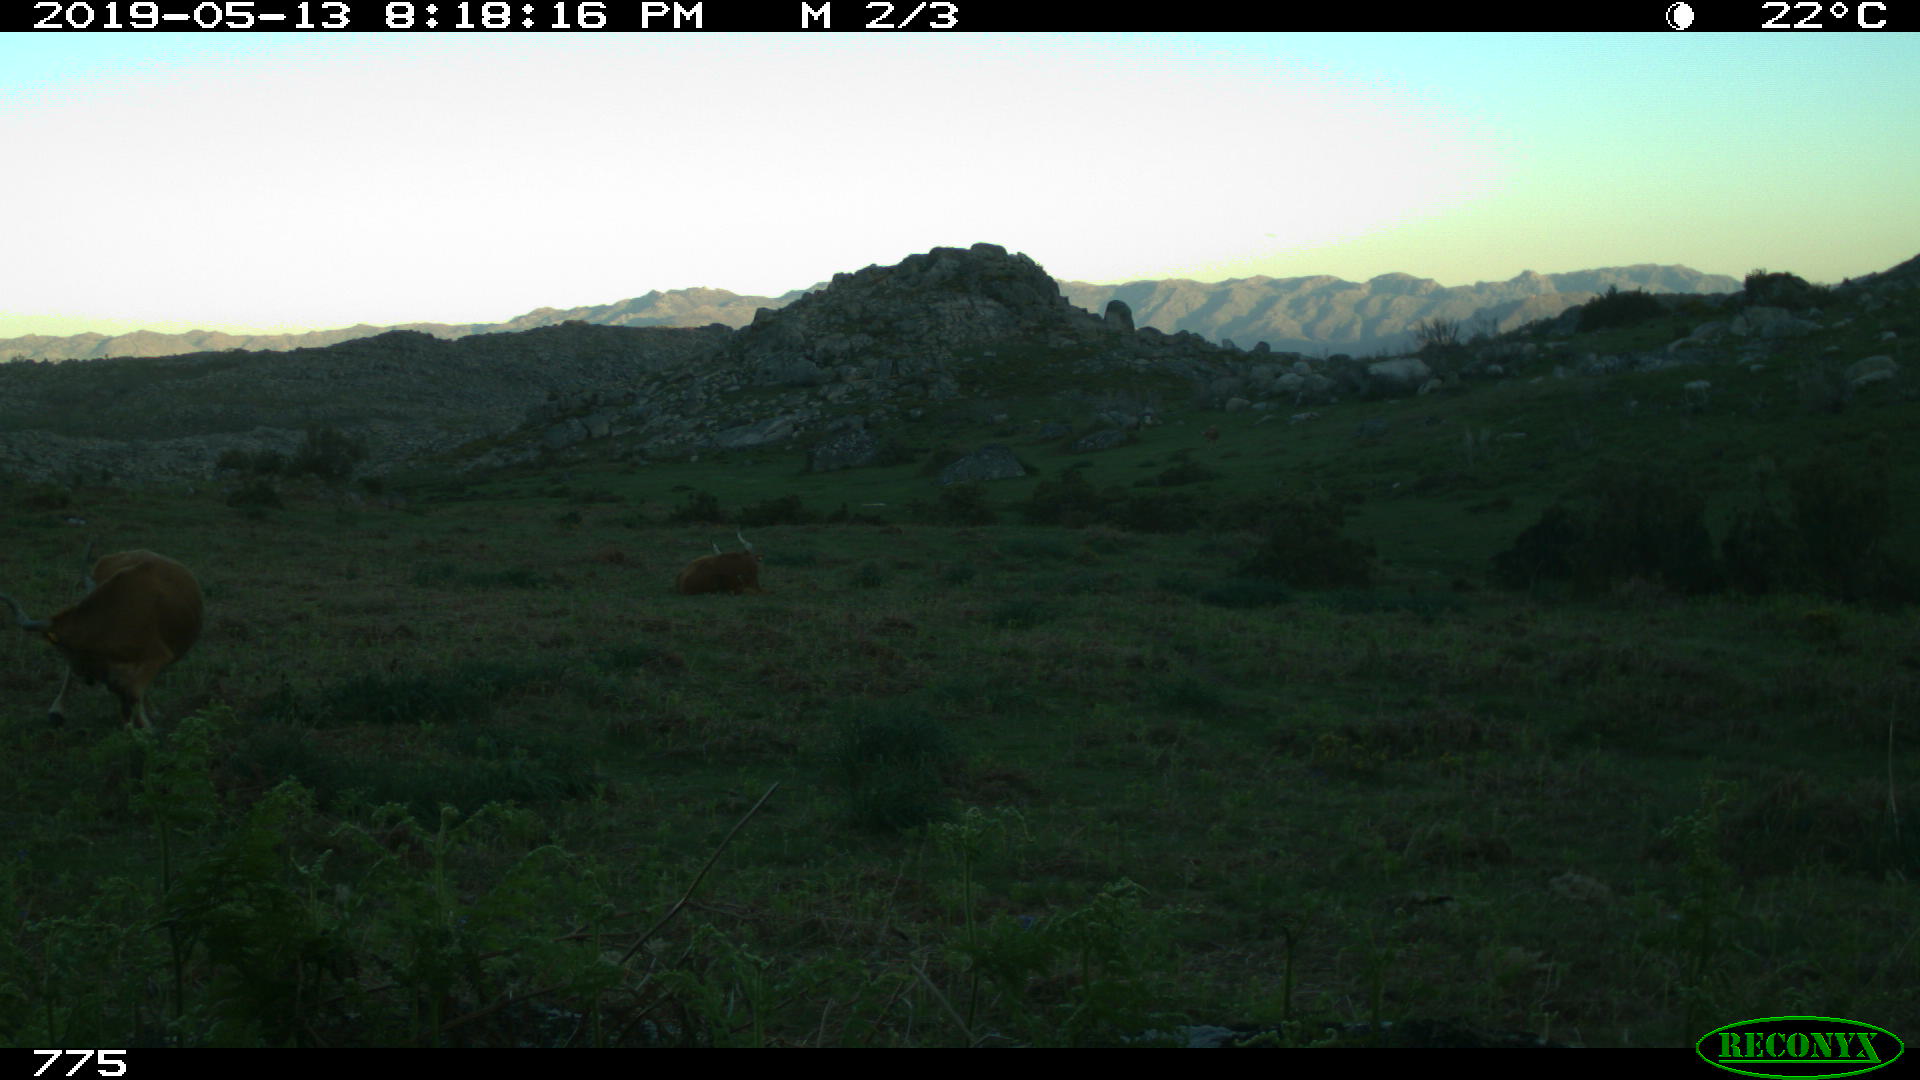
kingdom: Animalia
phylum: Chordata
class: Mammalia
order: Artiodactyla
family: Bovidae
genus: Bos
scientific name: Bos taurus
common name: Domesticated cattle
